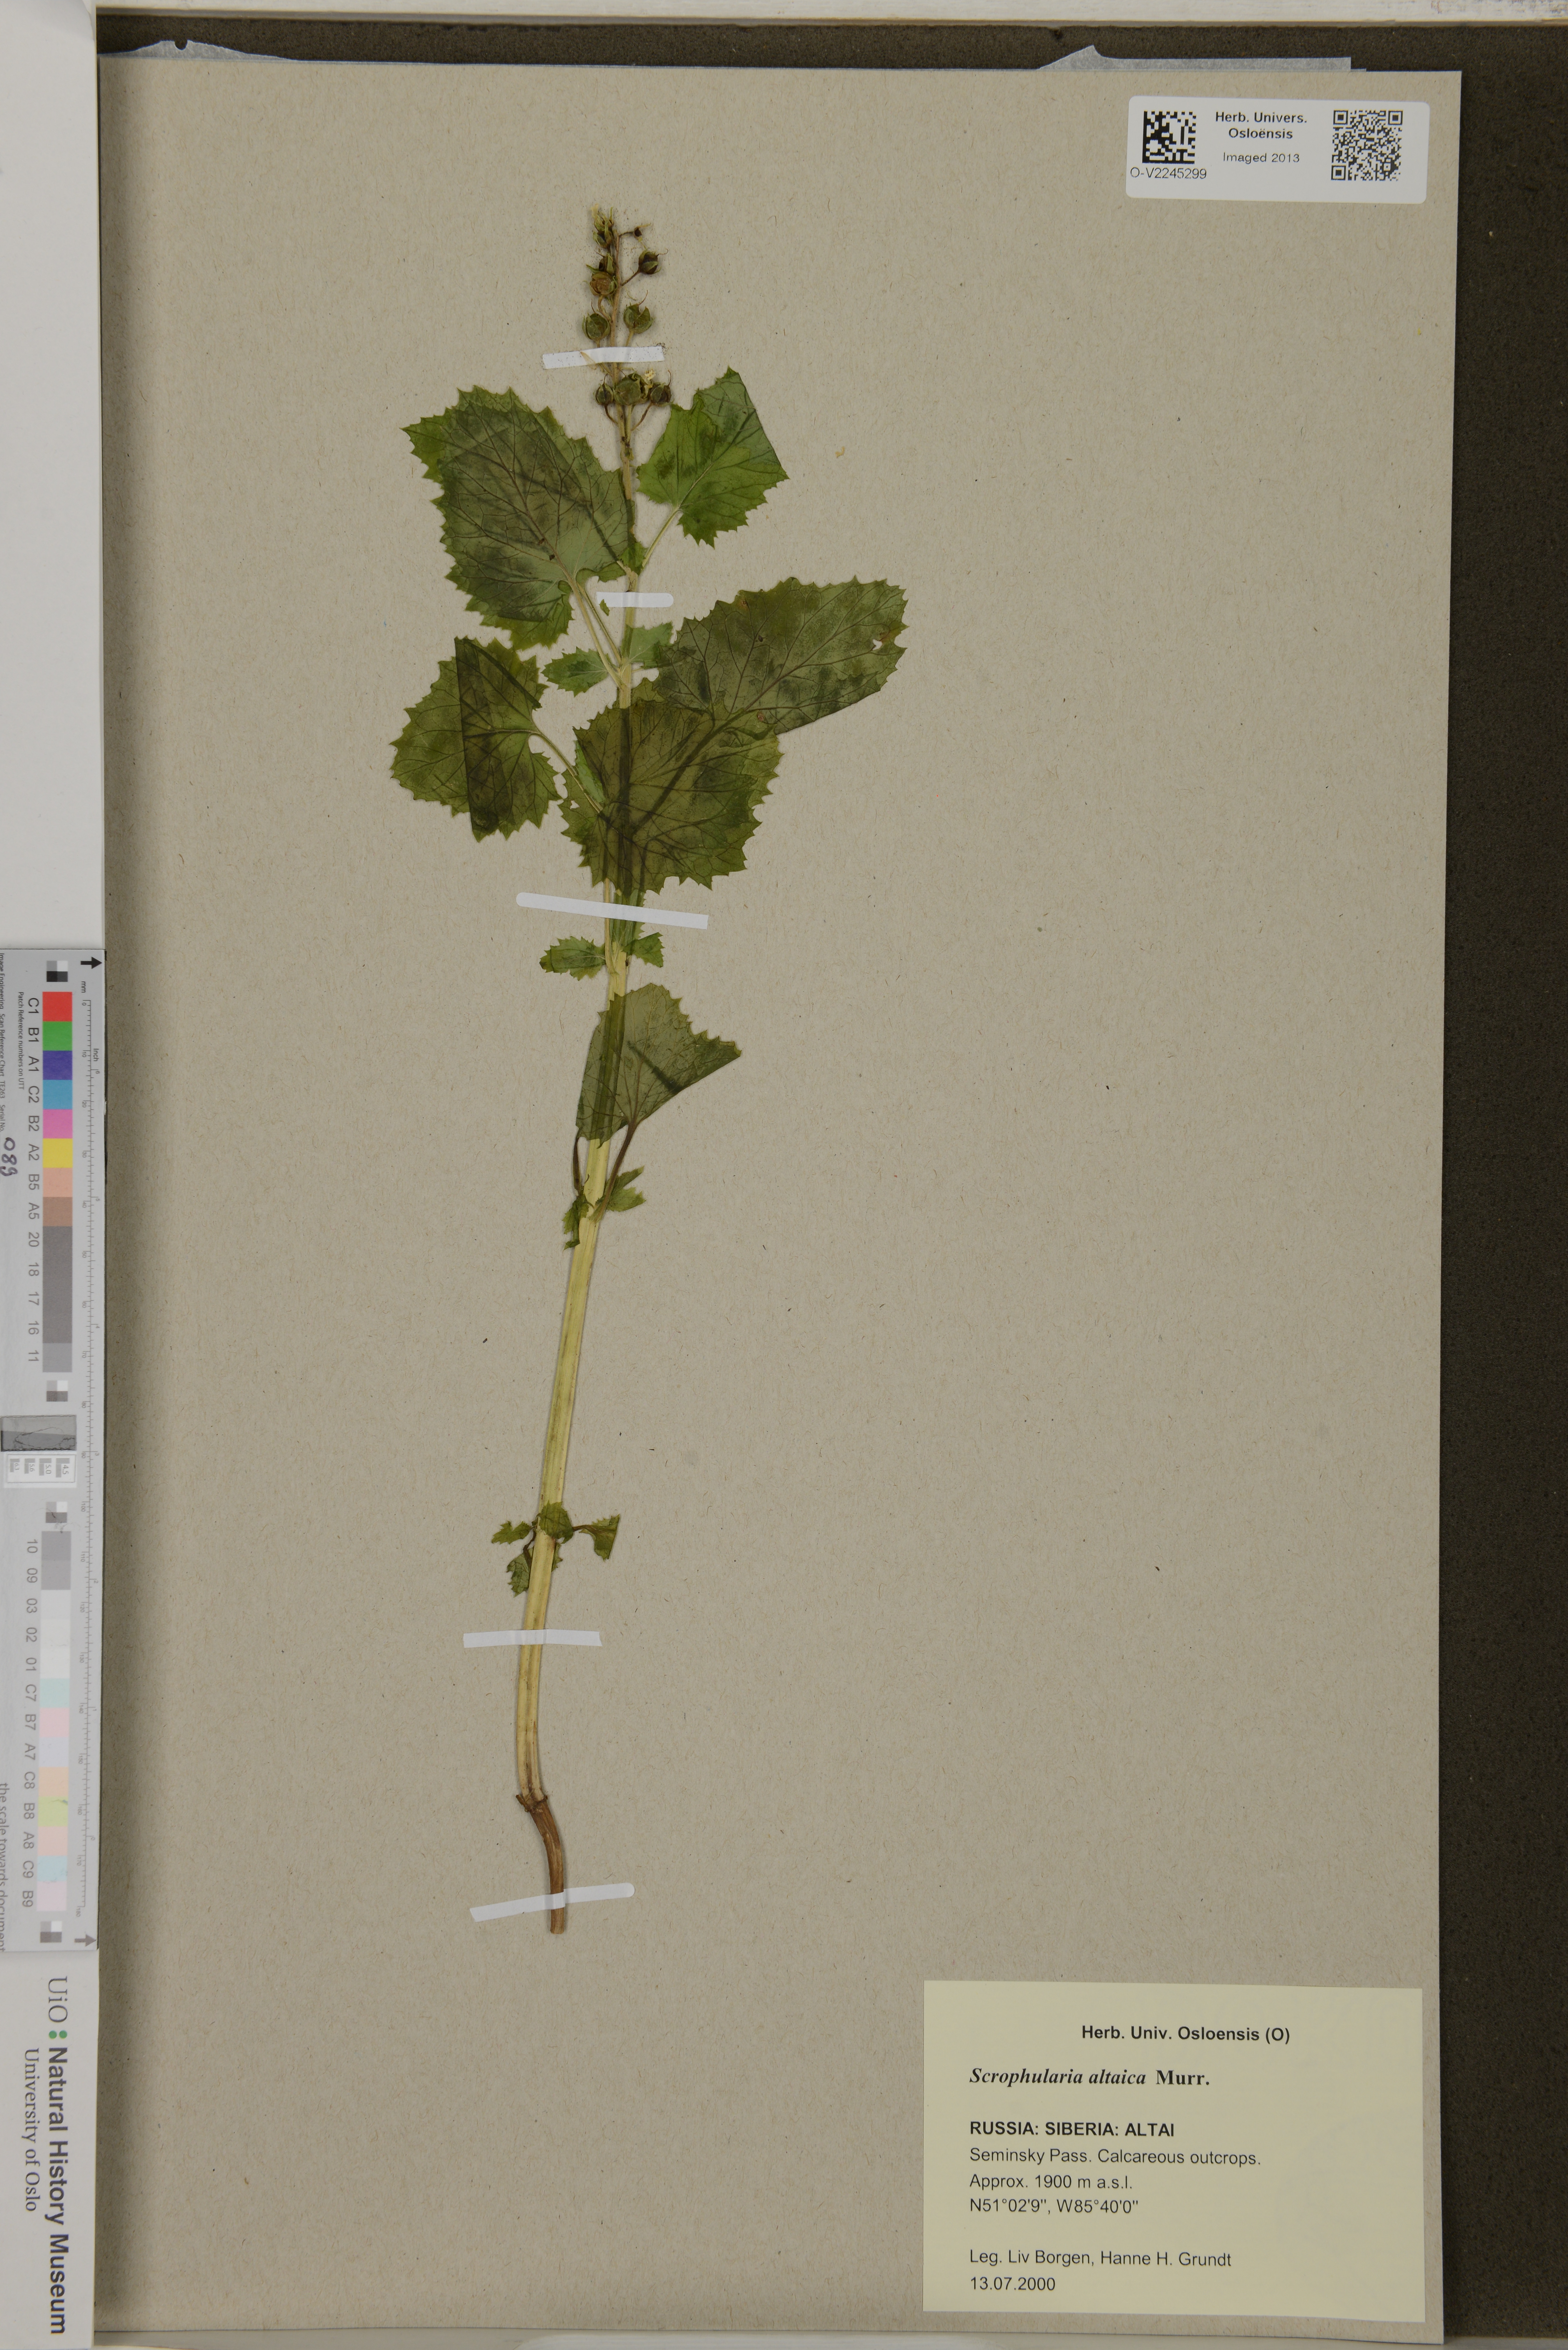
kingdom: Plantae
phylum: Tracheophyta
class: Magnoliopsida
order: Lamiales
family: Scrophulariaceae
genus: Scrophularia
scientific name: Scrophularia altaica
